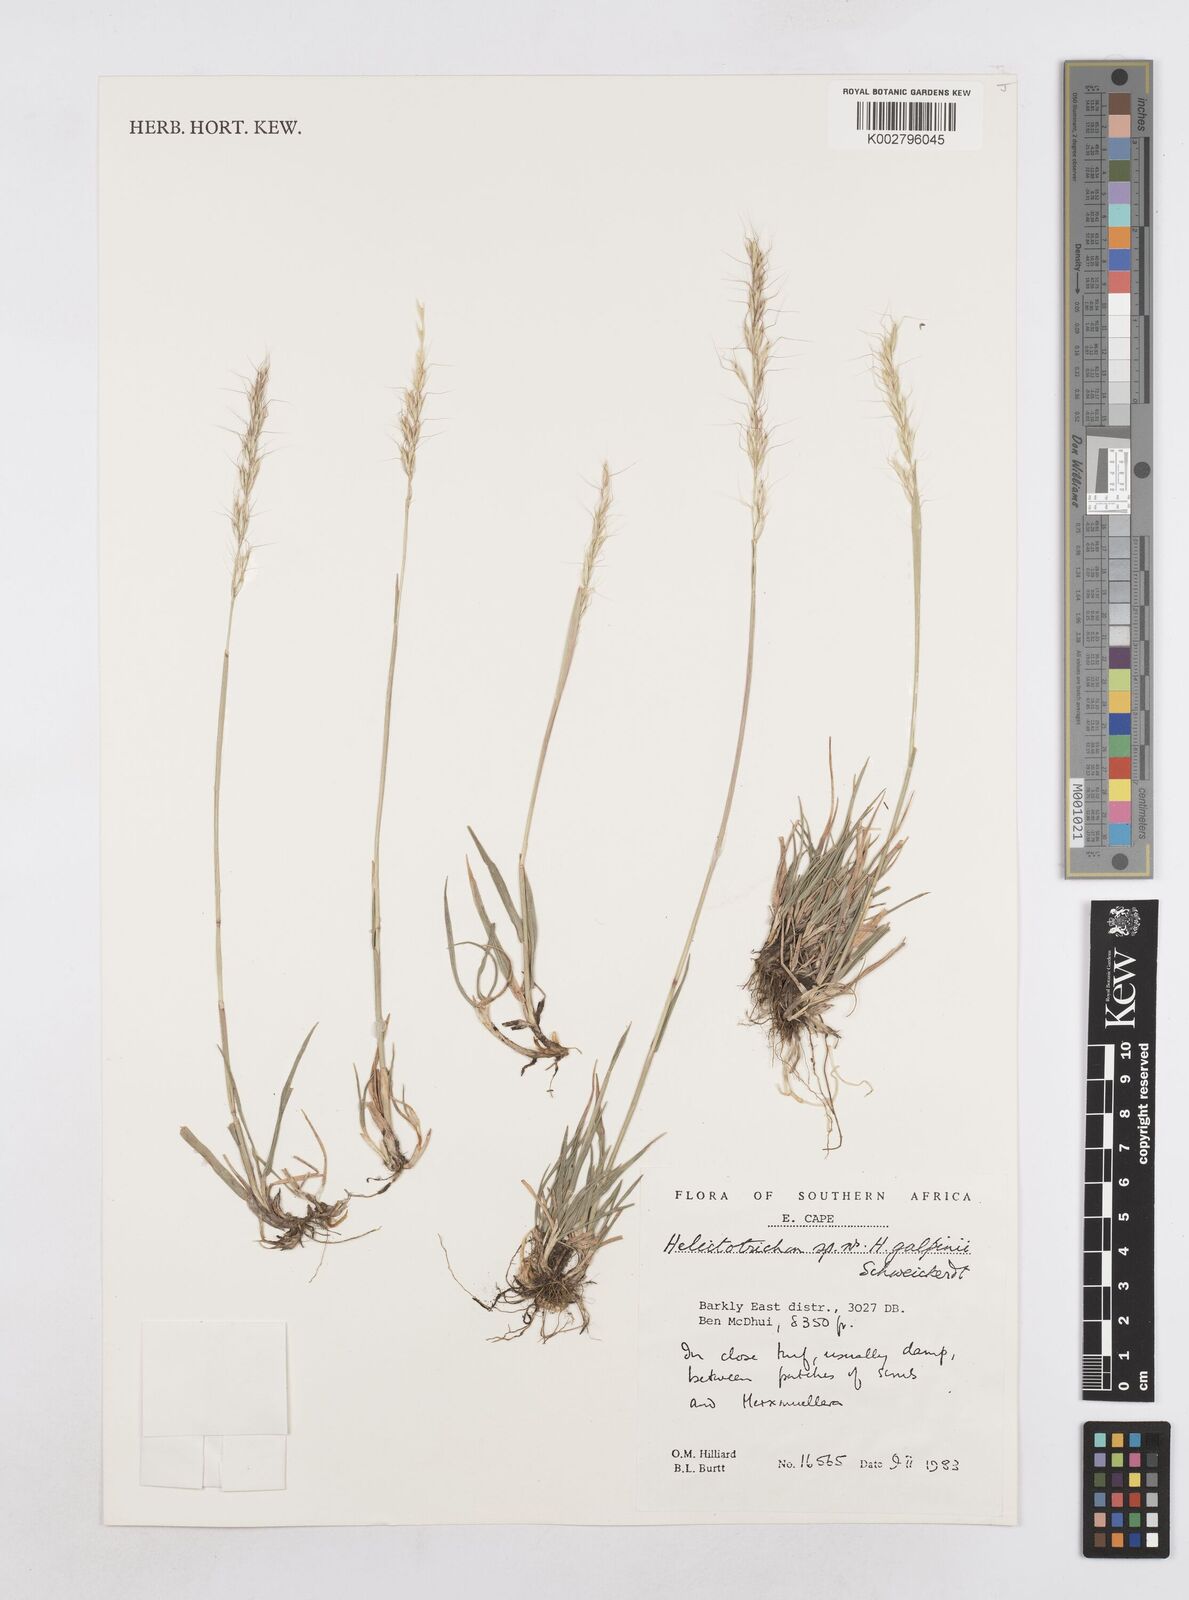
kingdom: Plantae
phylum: Tracheophyta
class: Liliopsida
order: Poales
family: Poaceae
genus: Trisetopsis
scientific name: Trisetopsis galpinii
